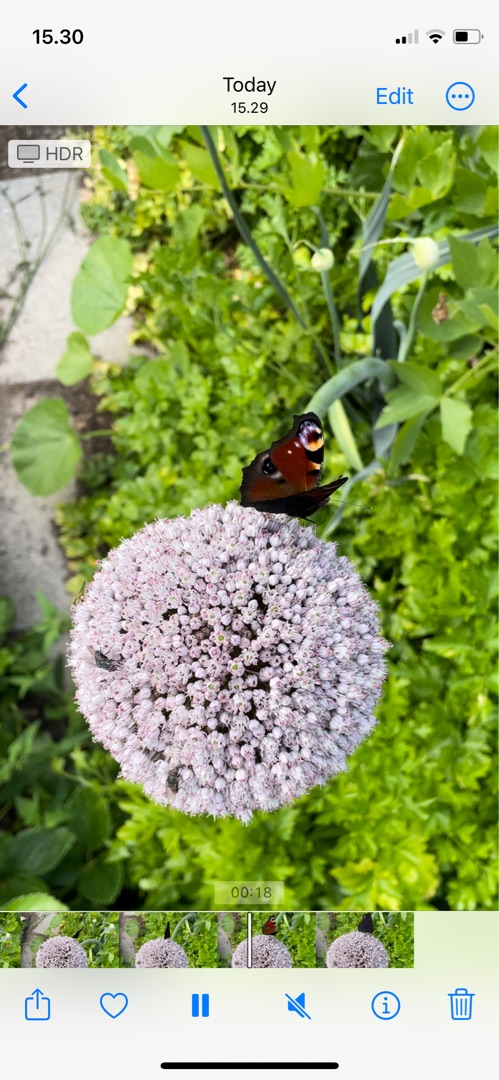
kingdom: Animalia
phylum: Arthropoda
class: Insecta
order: Lepidoptera
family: Nymphalidae
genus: Aglais
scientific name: Aglais io
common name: Dagpåfugleøje
